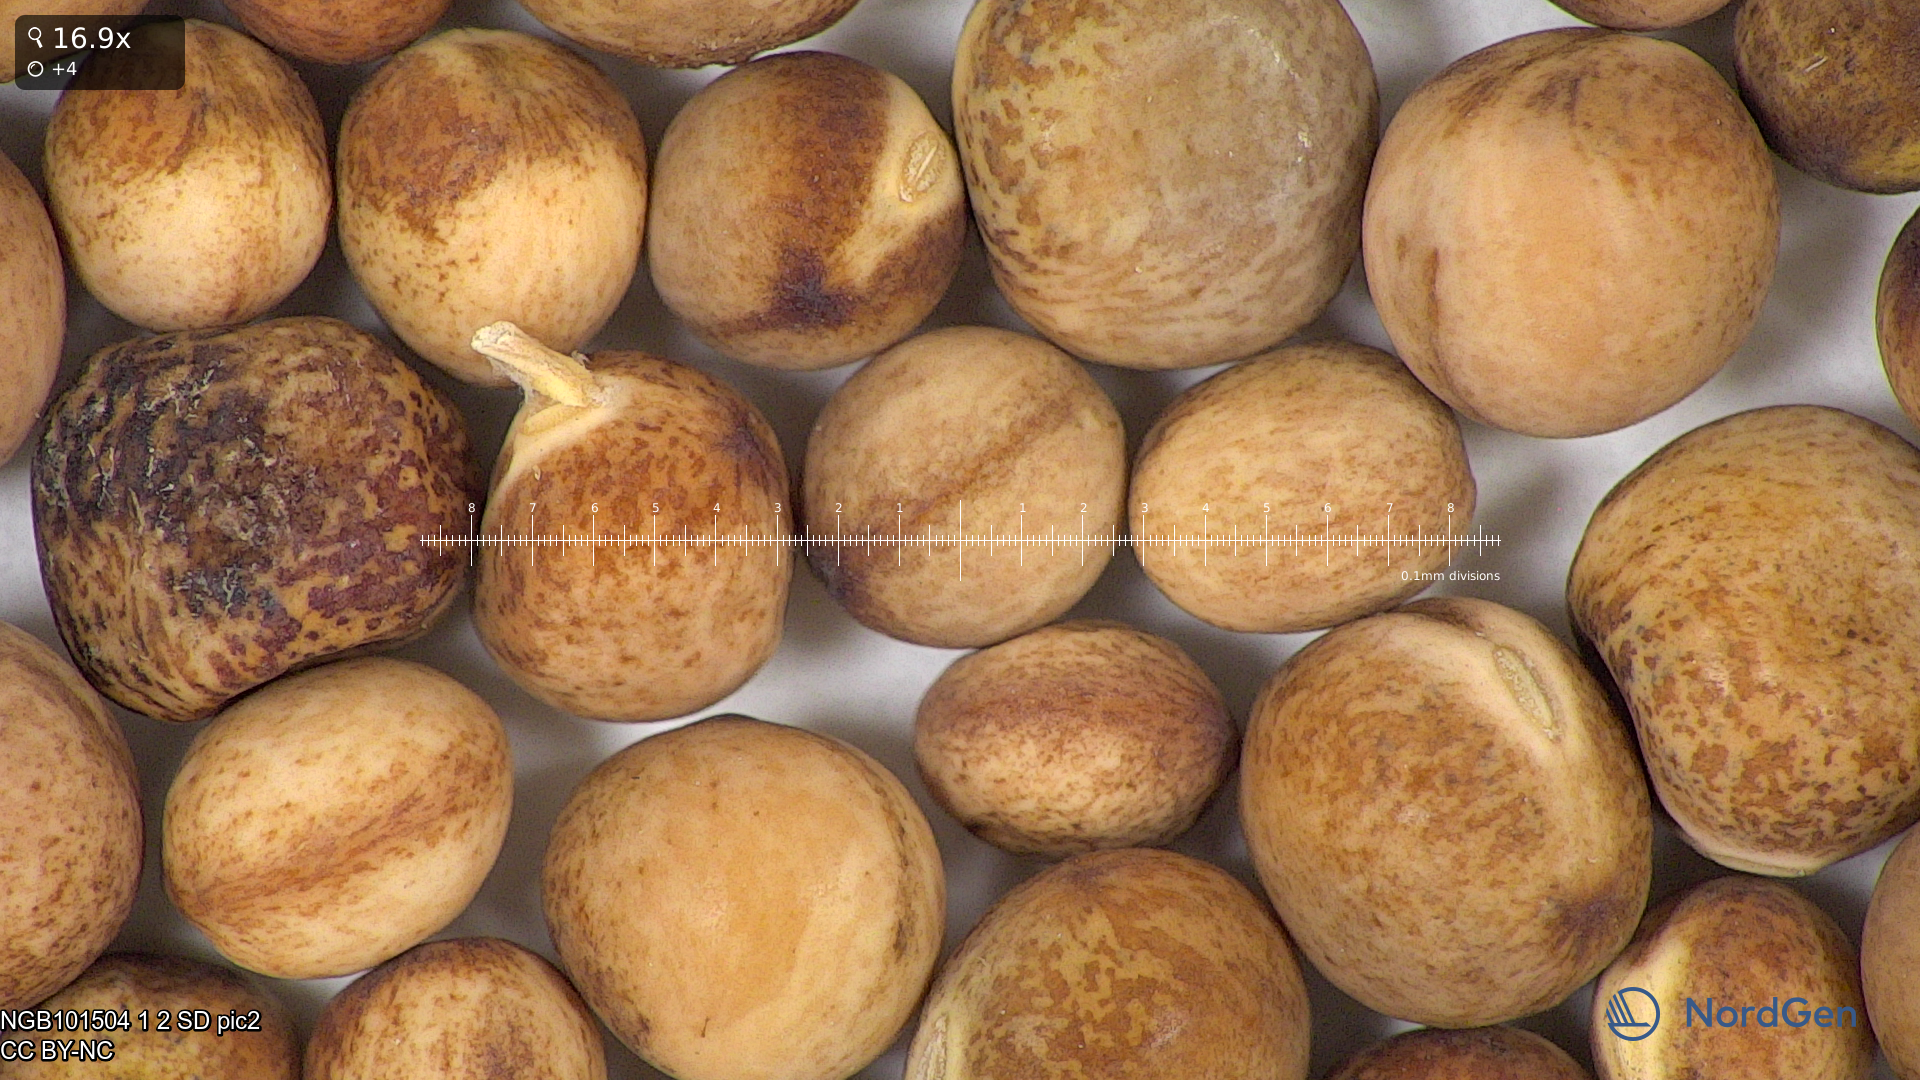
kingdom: Plantae
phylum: Tracheophyta
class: Magnoliopsida
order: Fabales
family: Fabaceae
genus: Lathyrus
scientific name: Lathyrus oleraceus
